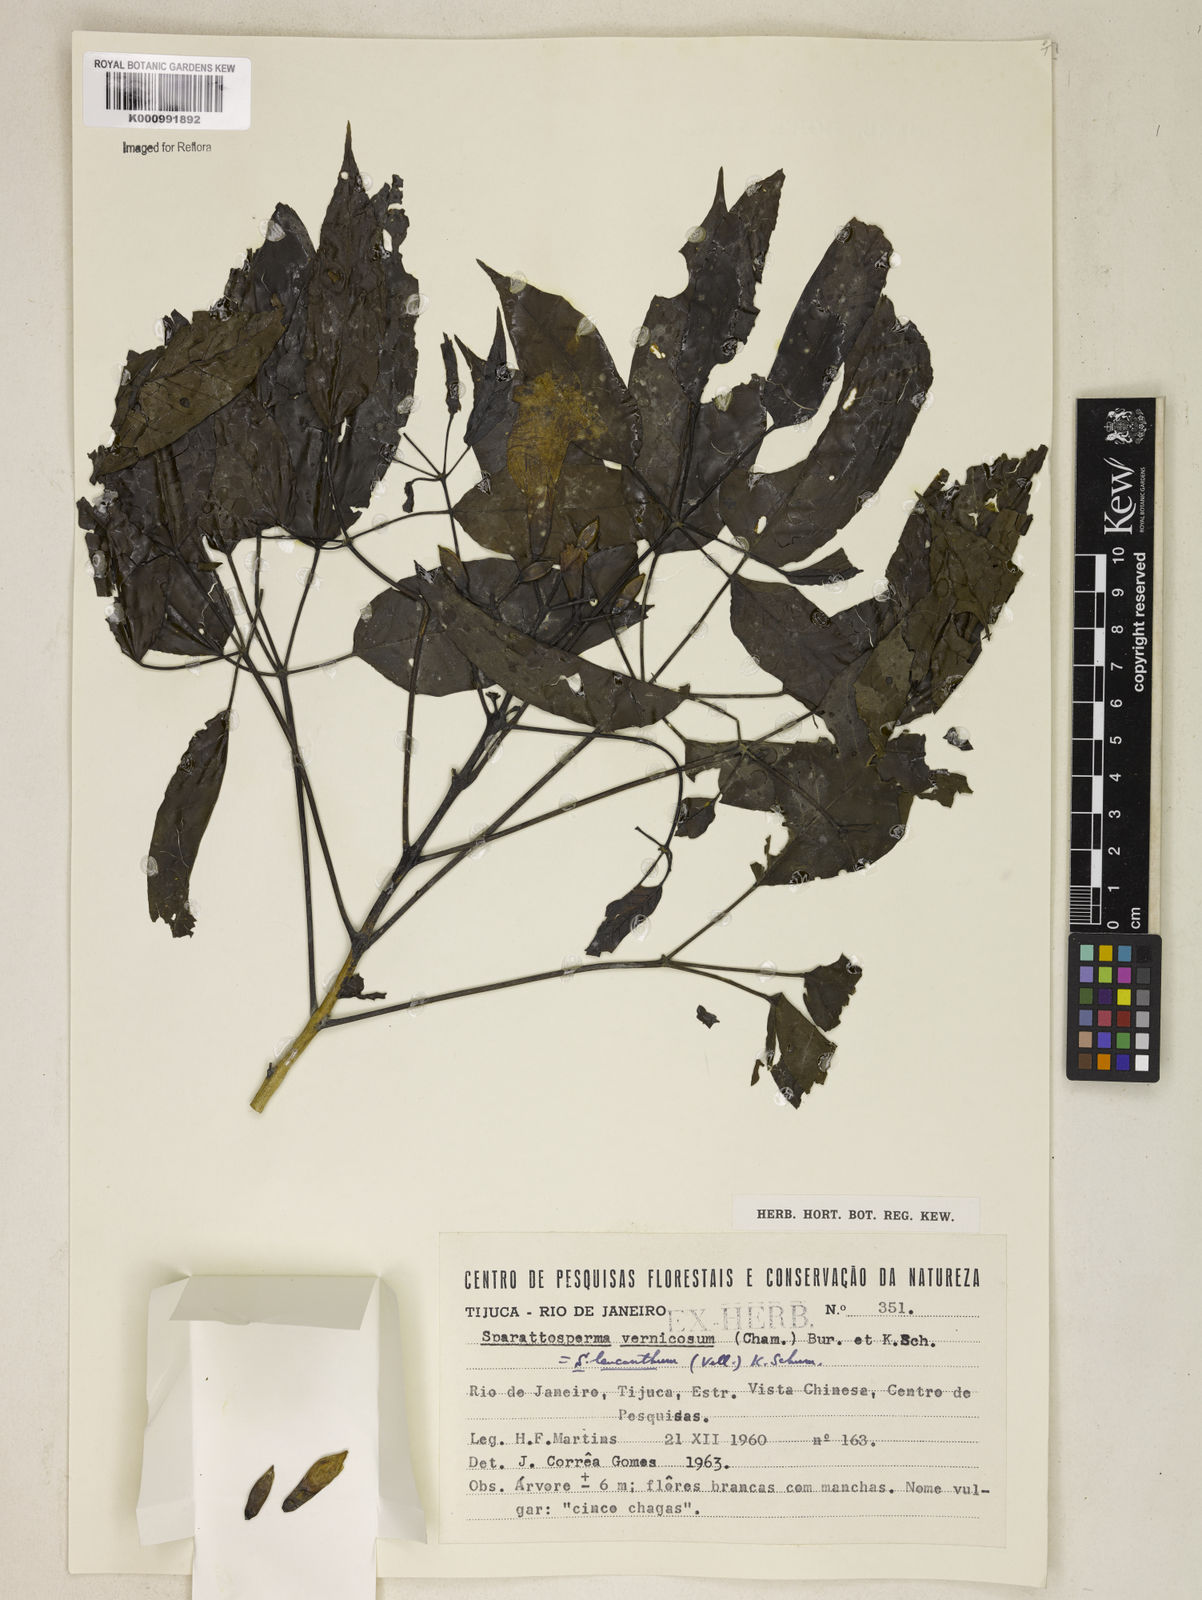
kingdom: Plantae
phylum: Tracheophyta
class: Magnoliopsida
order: Lamiales
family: Bignoniaceae
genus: Sparattosperma
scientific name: Sparattosperma leucanthum
